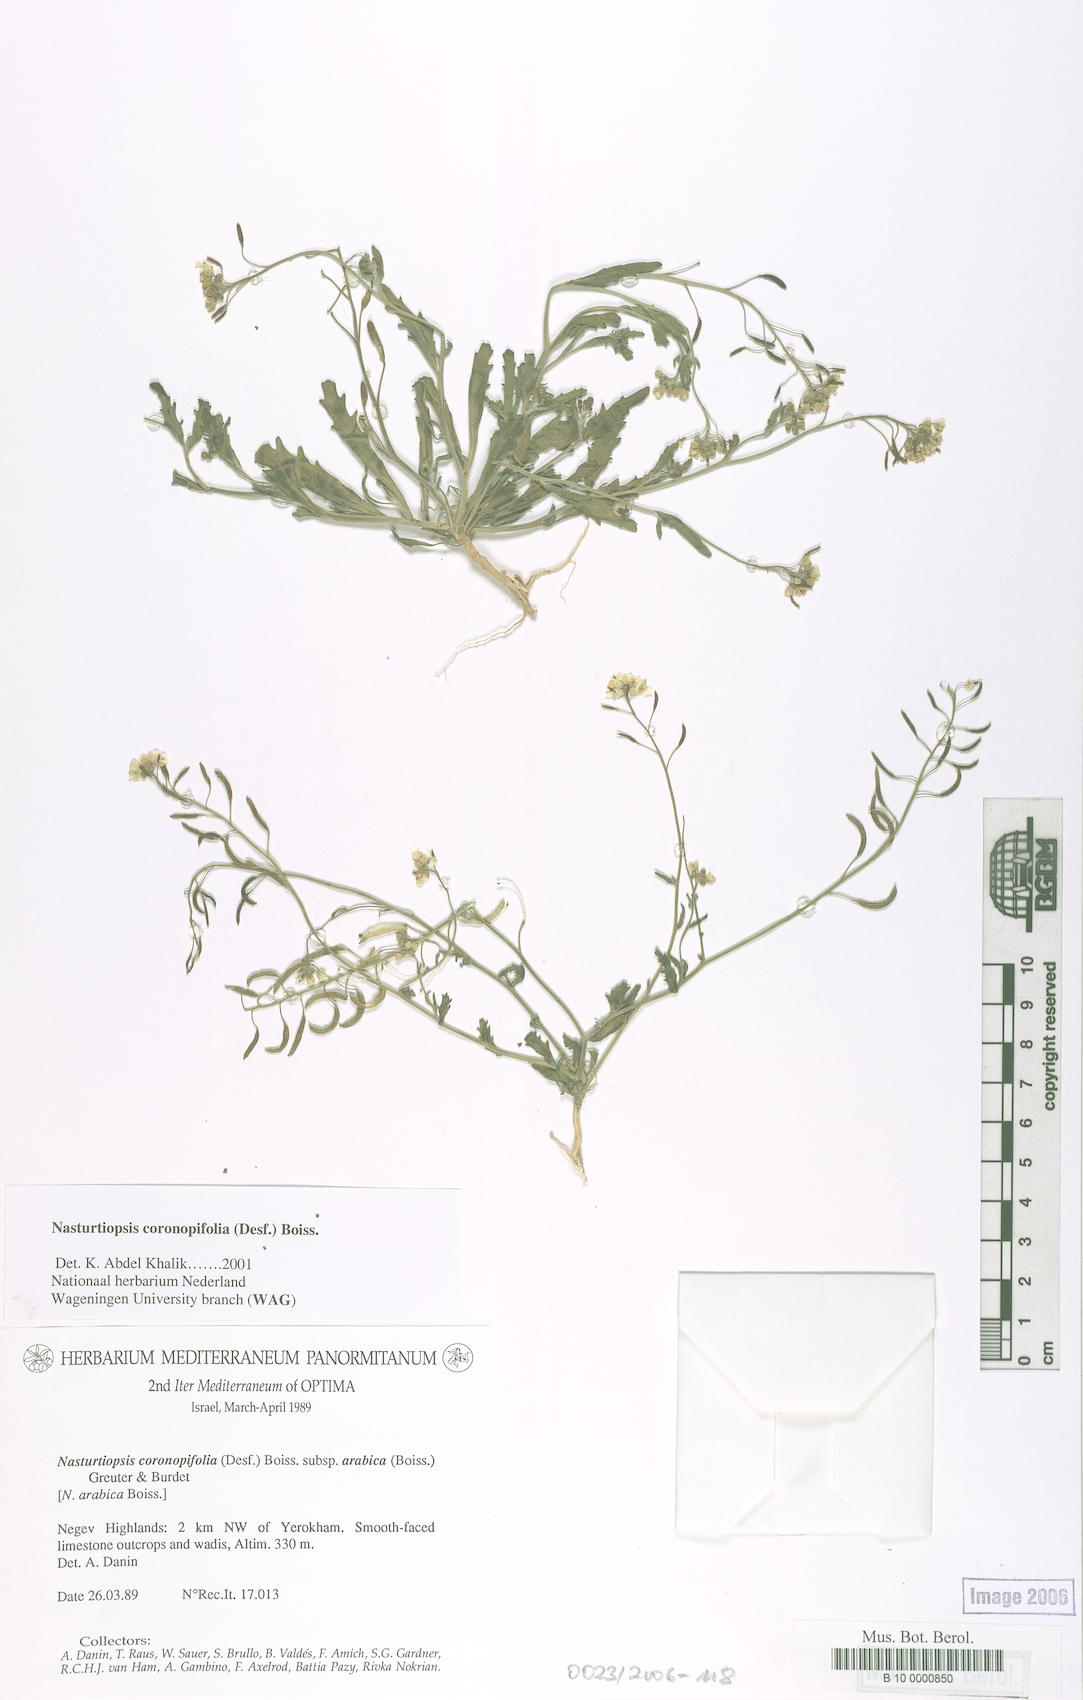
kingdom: Plantae
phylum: Tracheophyta
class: Magnoliopsida
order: Brassicales
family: Brassicaceae
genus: Nasturtiopsis
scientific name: Nasturtiopsis coronopifolia
